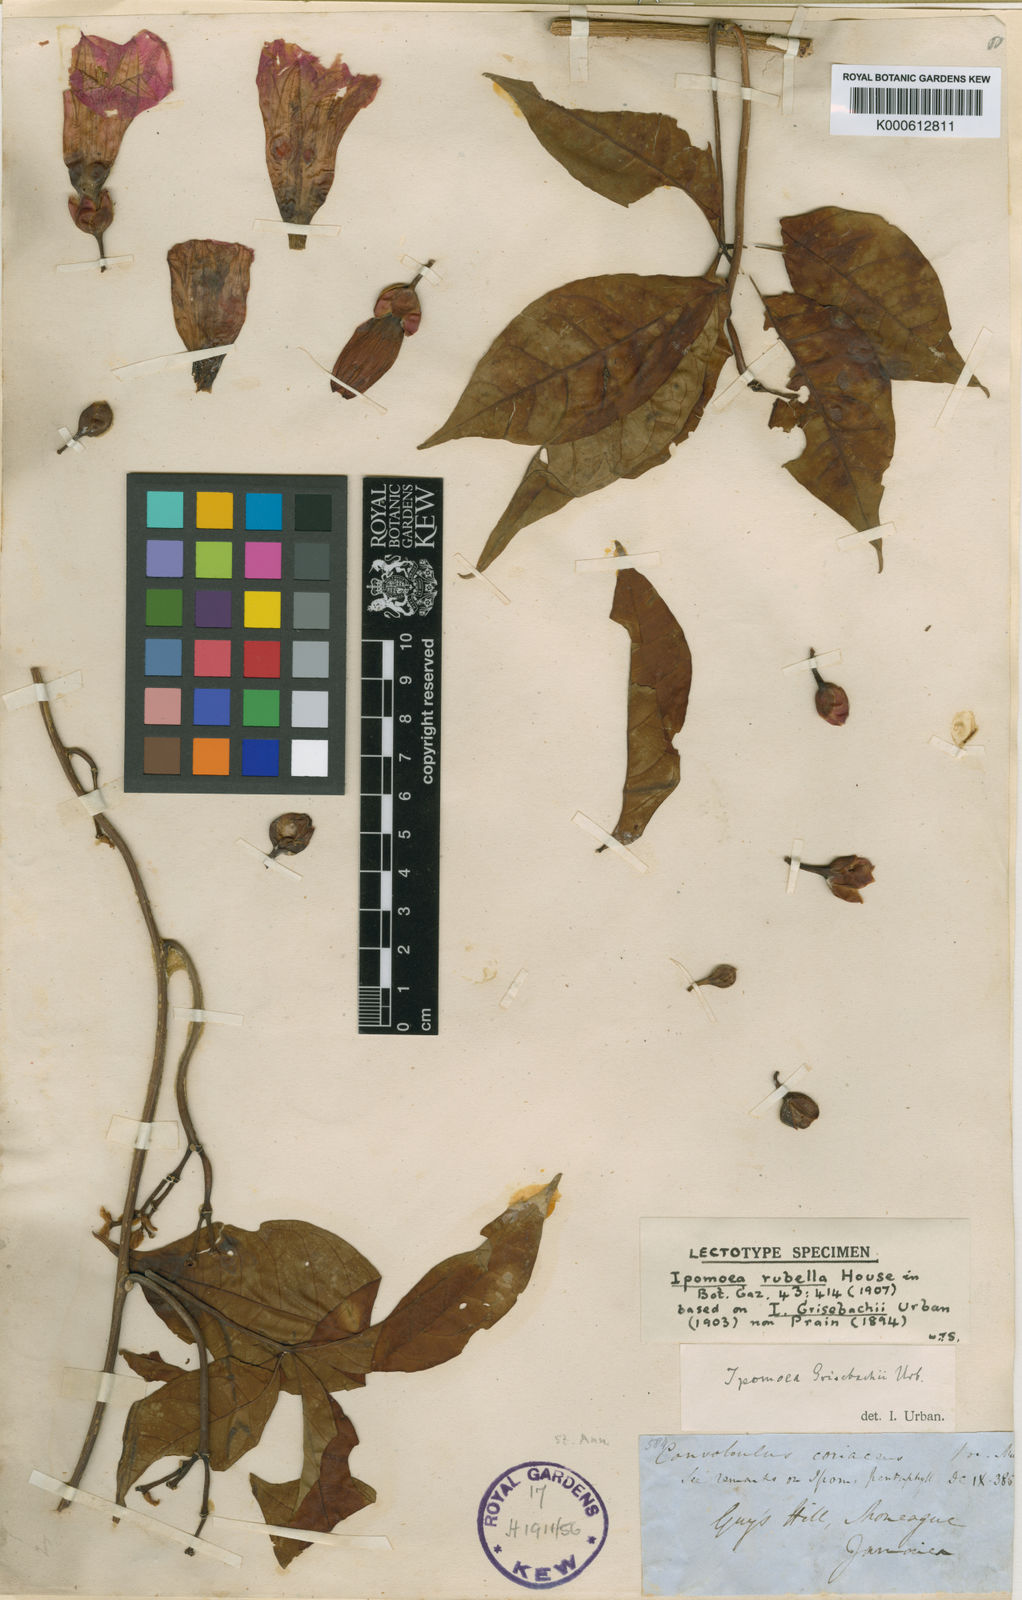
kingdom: Plantae
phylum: Tracheophyta
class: Magnoliopsida
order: Solanales
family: Convolvulaceae
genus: Ipomoea
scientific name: Ipomoea lineolata
